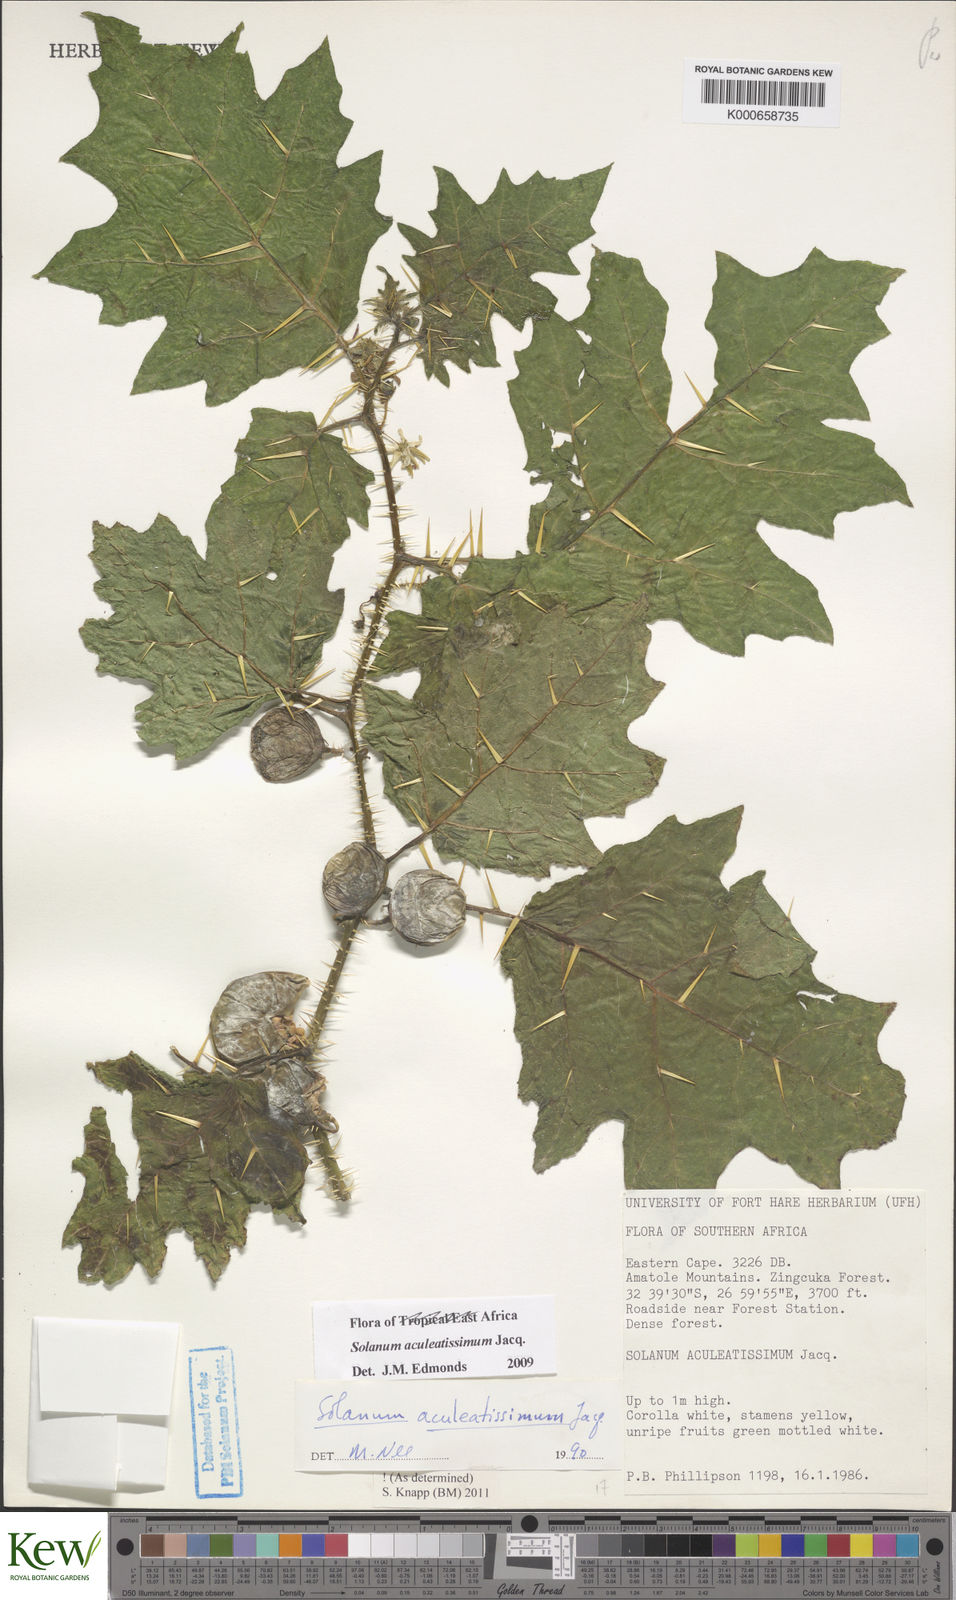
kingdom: Plantae
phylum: Tracheophyta
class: Magnoliopsida
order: Solanales
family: Solanaceae
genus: Solanum
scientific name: Solanum aculeatissimum
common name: Dutch eggplant
